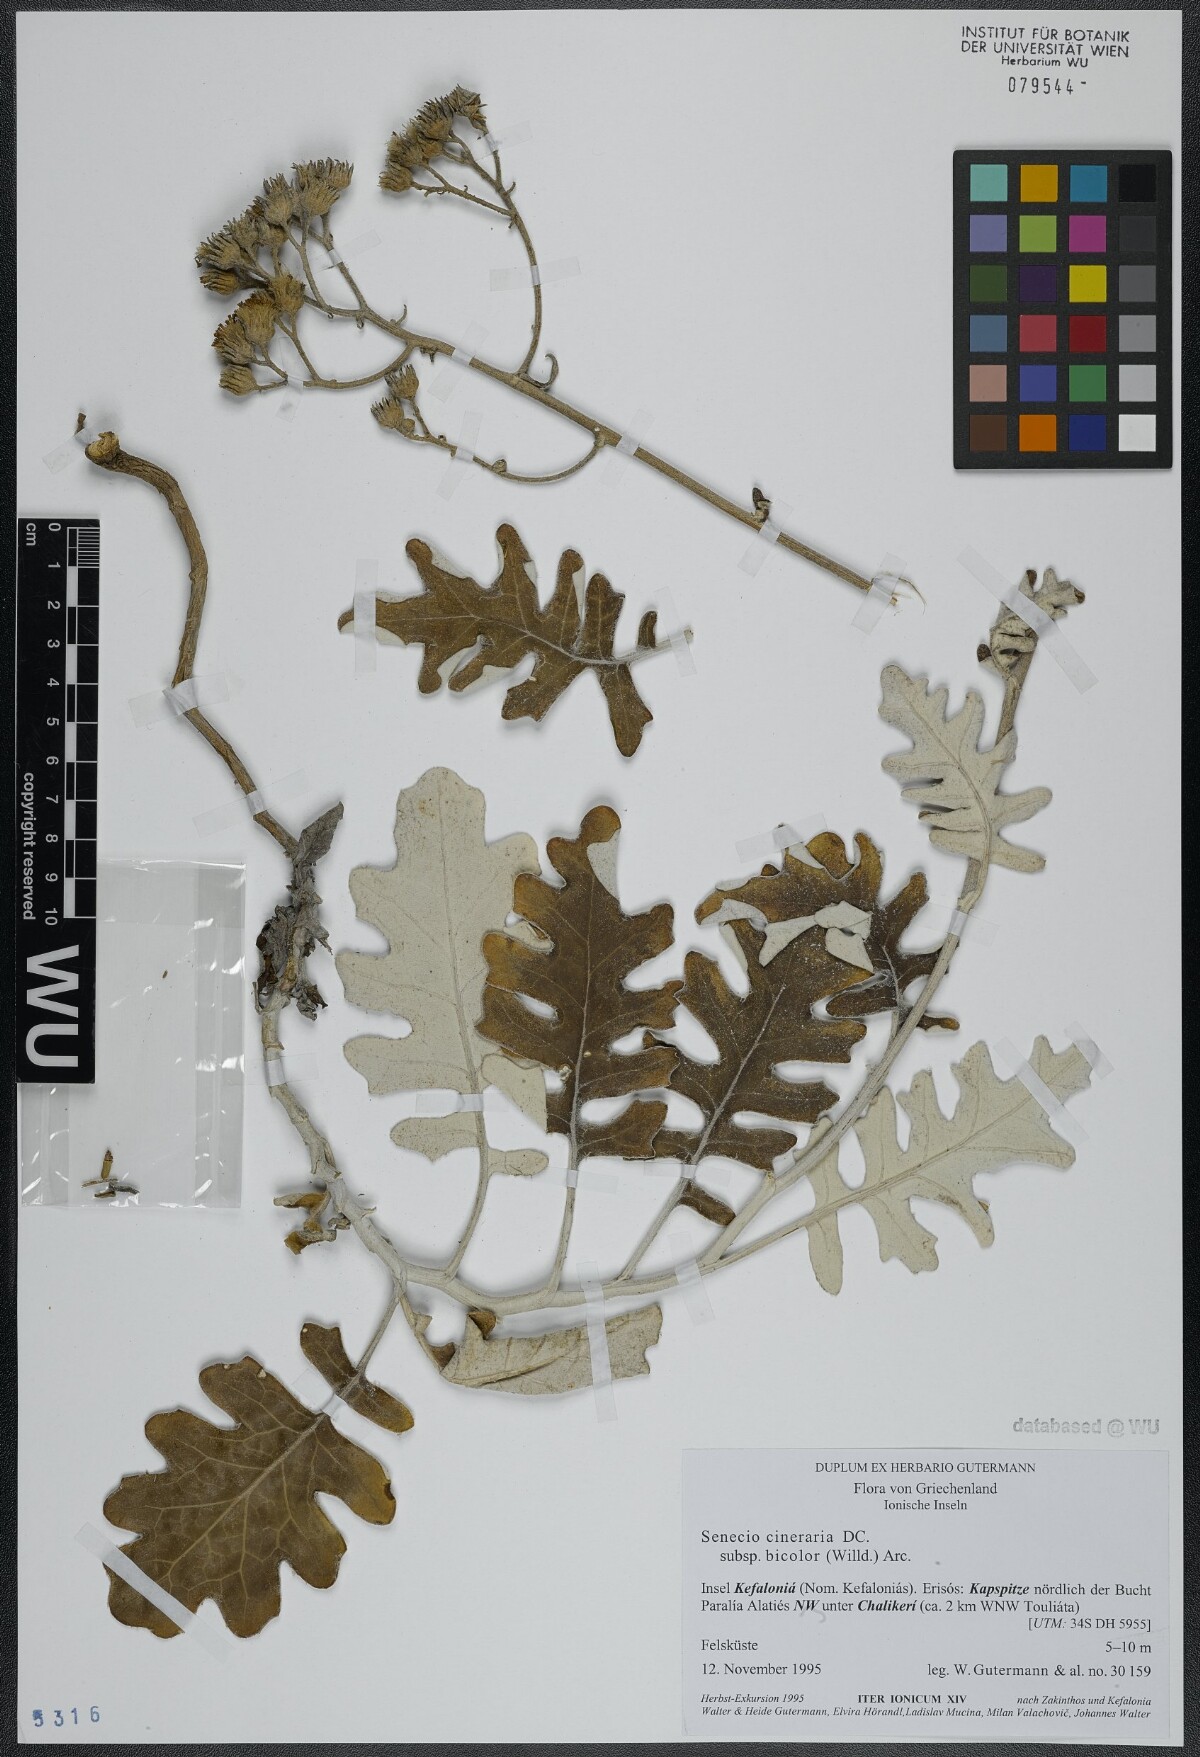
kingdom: Plantae
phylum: Tracheophyta
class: Magnoliopsida
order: Asterales
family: Asteraceae
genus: Jacobaea
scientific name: Jacobaea maritima
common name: Silver ragwort
